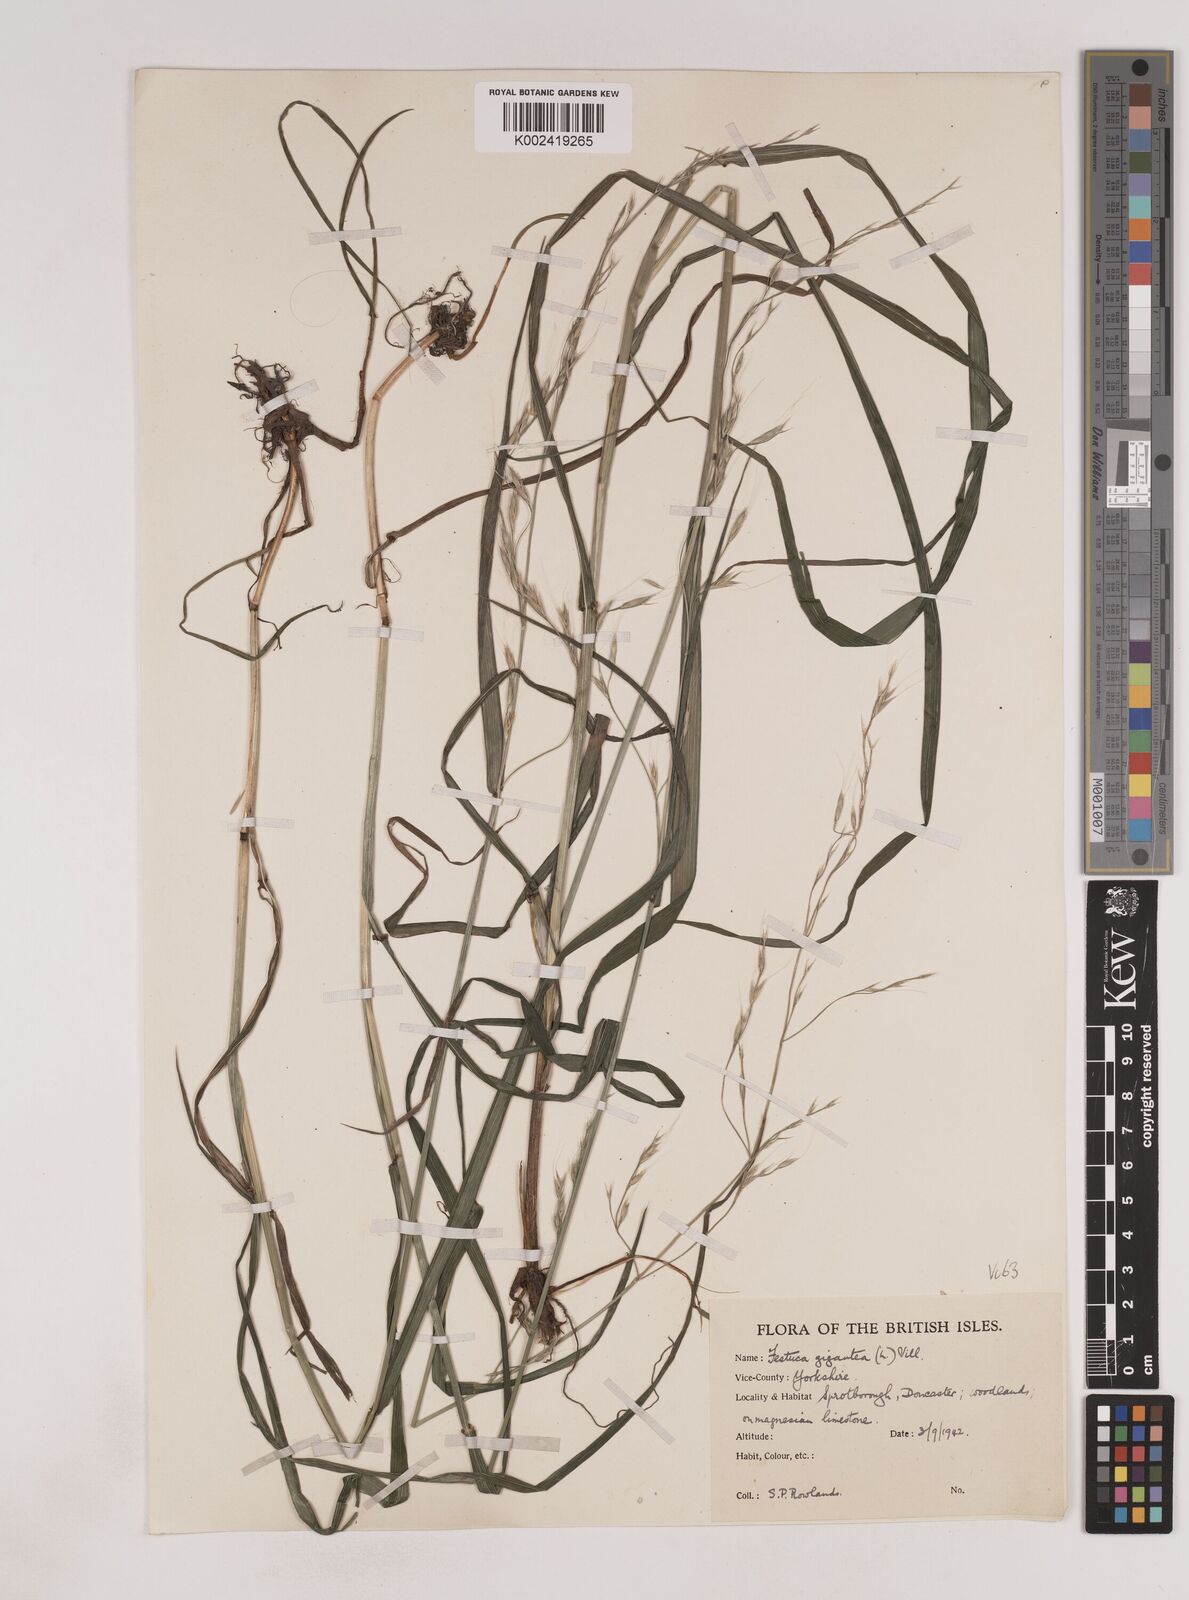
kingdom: Plantae
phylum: Tracheophyta
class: Liliopsida
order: Poales
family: Poaceae
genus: Lolium
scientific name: Lolium giganteum
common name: Giant fescue
